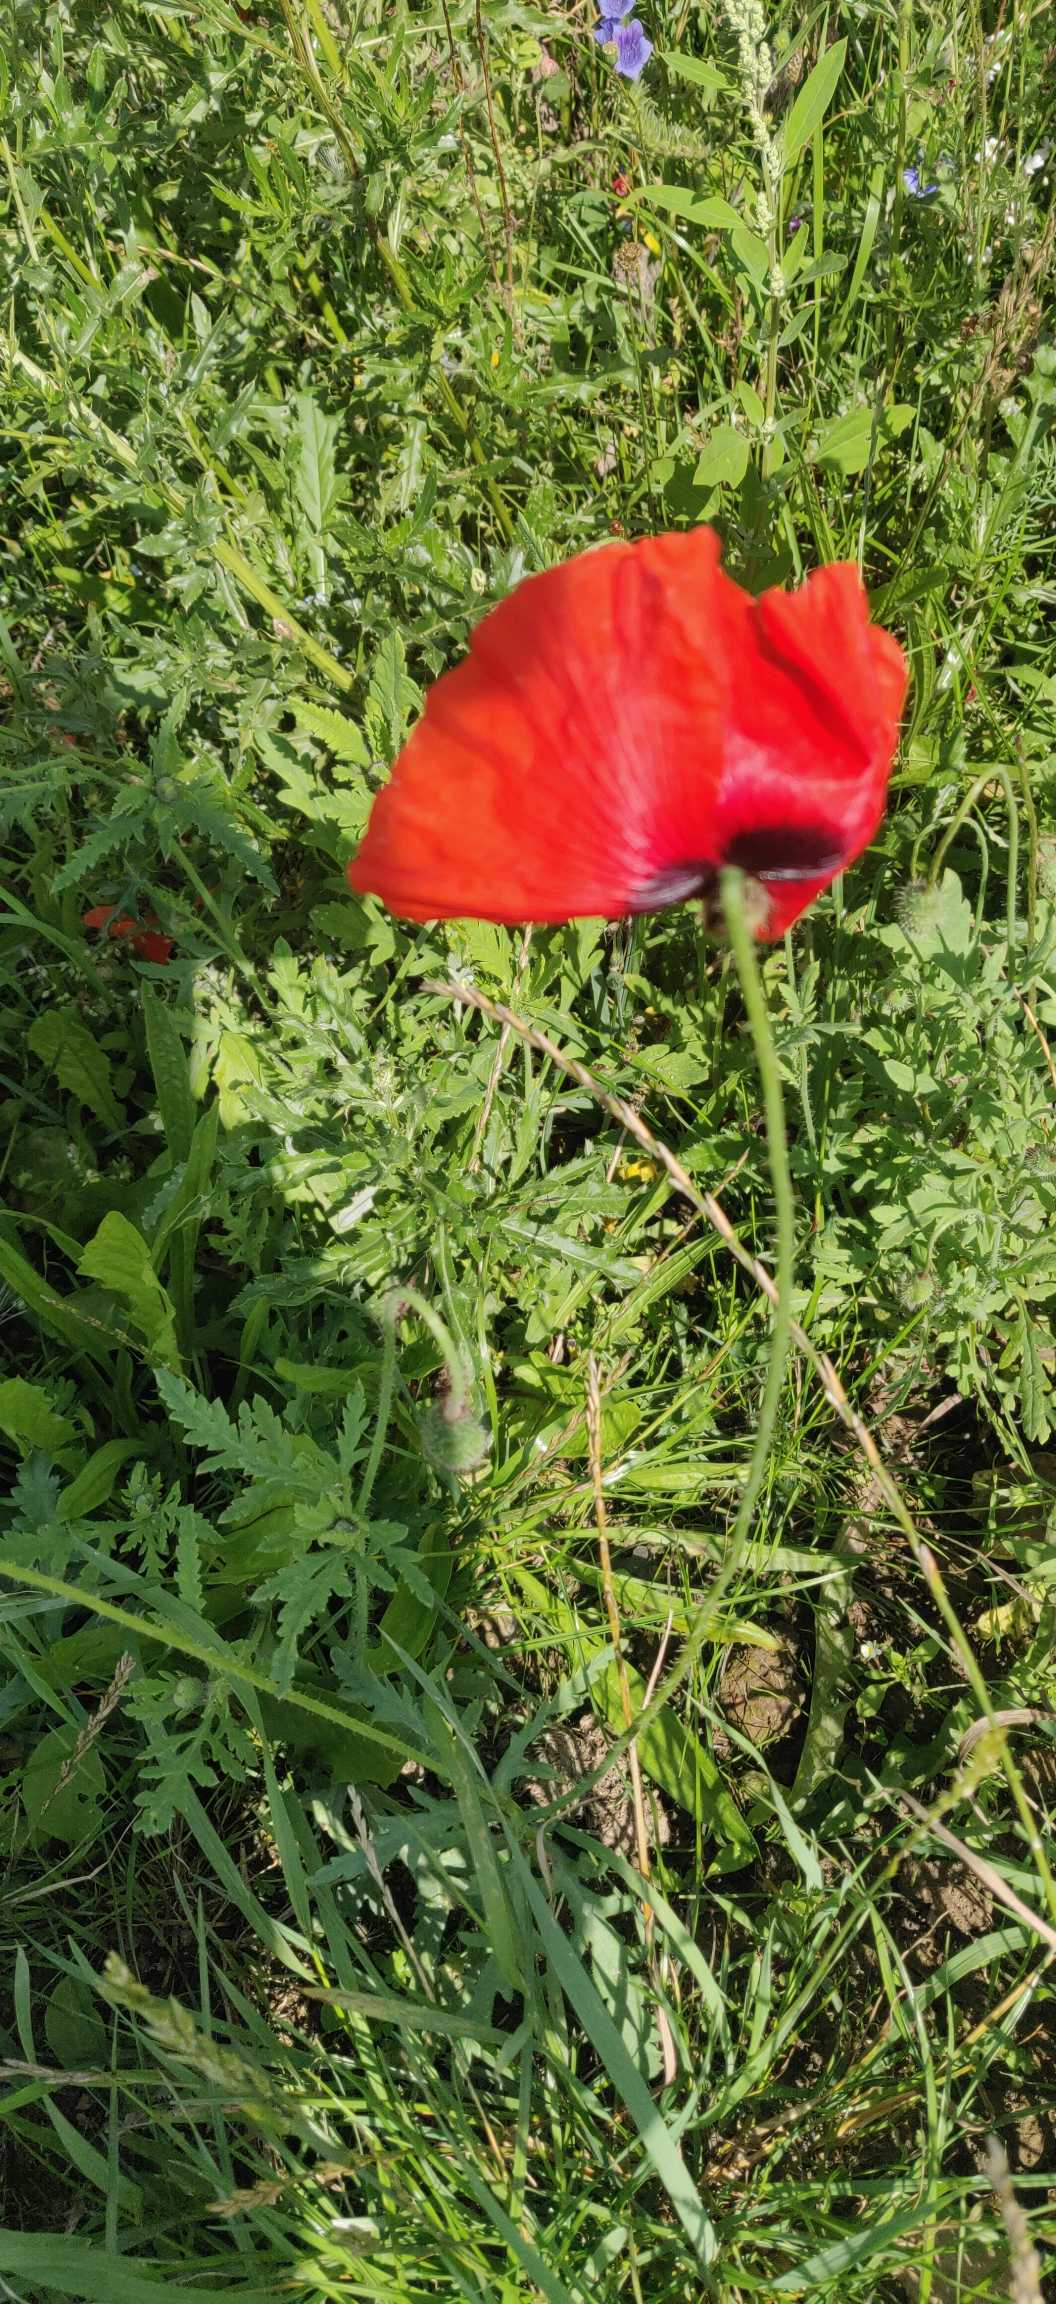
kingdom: Plantae
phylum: Tracheophyta
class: Magnoliopsida
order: Ranunculales
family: Papaveraceae
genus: Papaver
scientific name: Papaver rhoeas
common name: Korn-valmue
